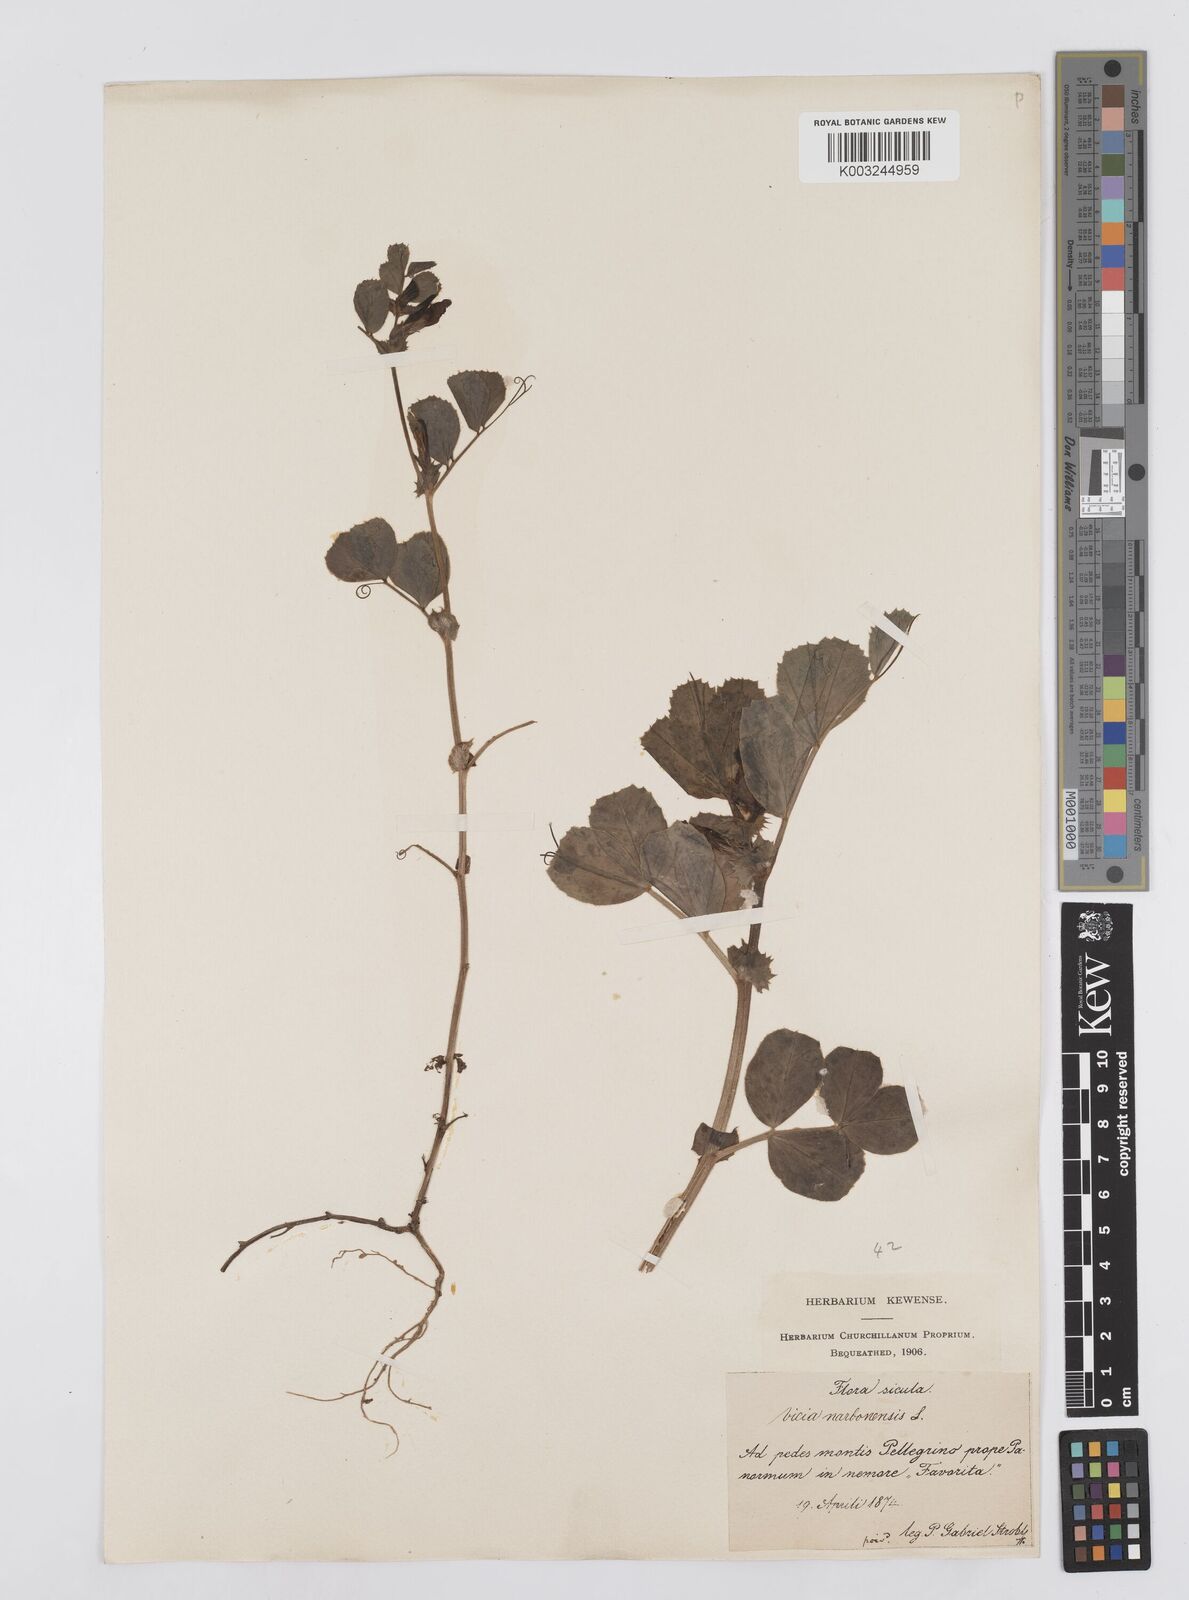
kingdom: Plantae
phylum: Tracheophyta
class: Magnoliopsida
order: Fabales
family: Fabaceae
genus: Vicia
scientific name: Vicia serratifolia
